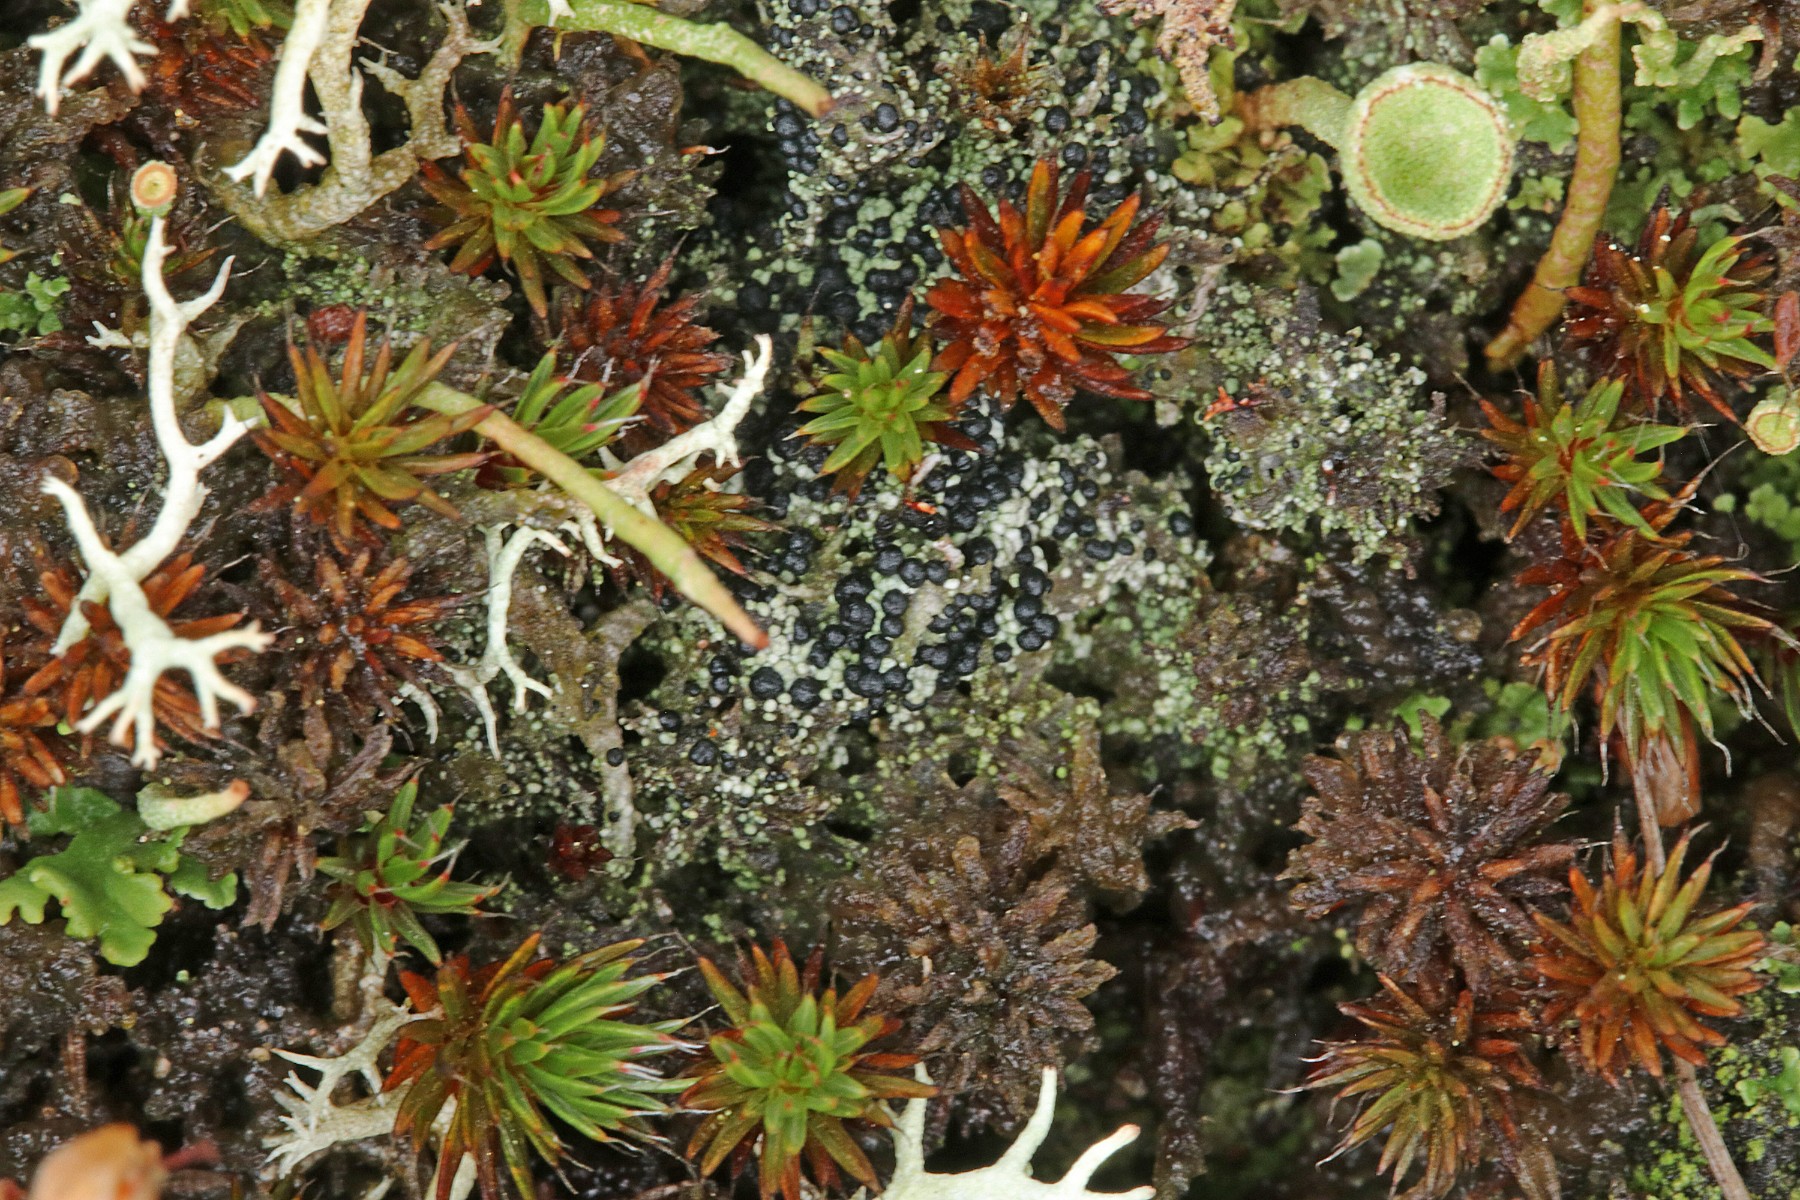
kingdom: Fungi
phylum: Ascomycota
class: Lecanoromycetes
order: Lecanorales
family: Byssolomataceae
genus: Micarea
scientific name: Micarea lignaria
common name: tørve-knaplav
